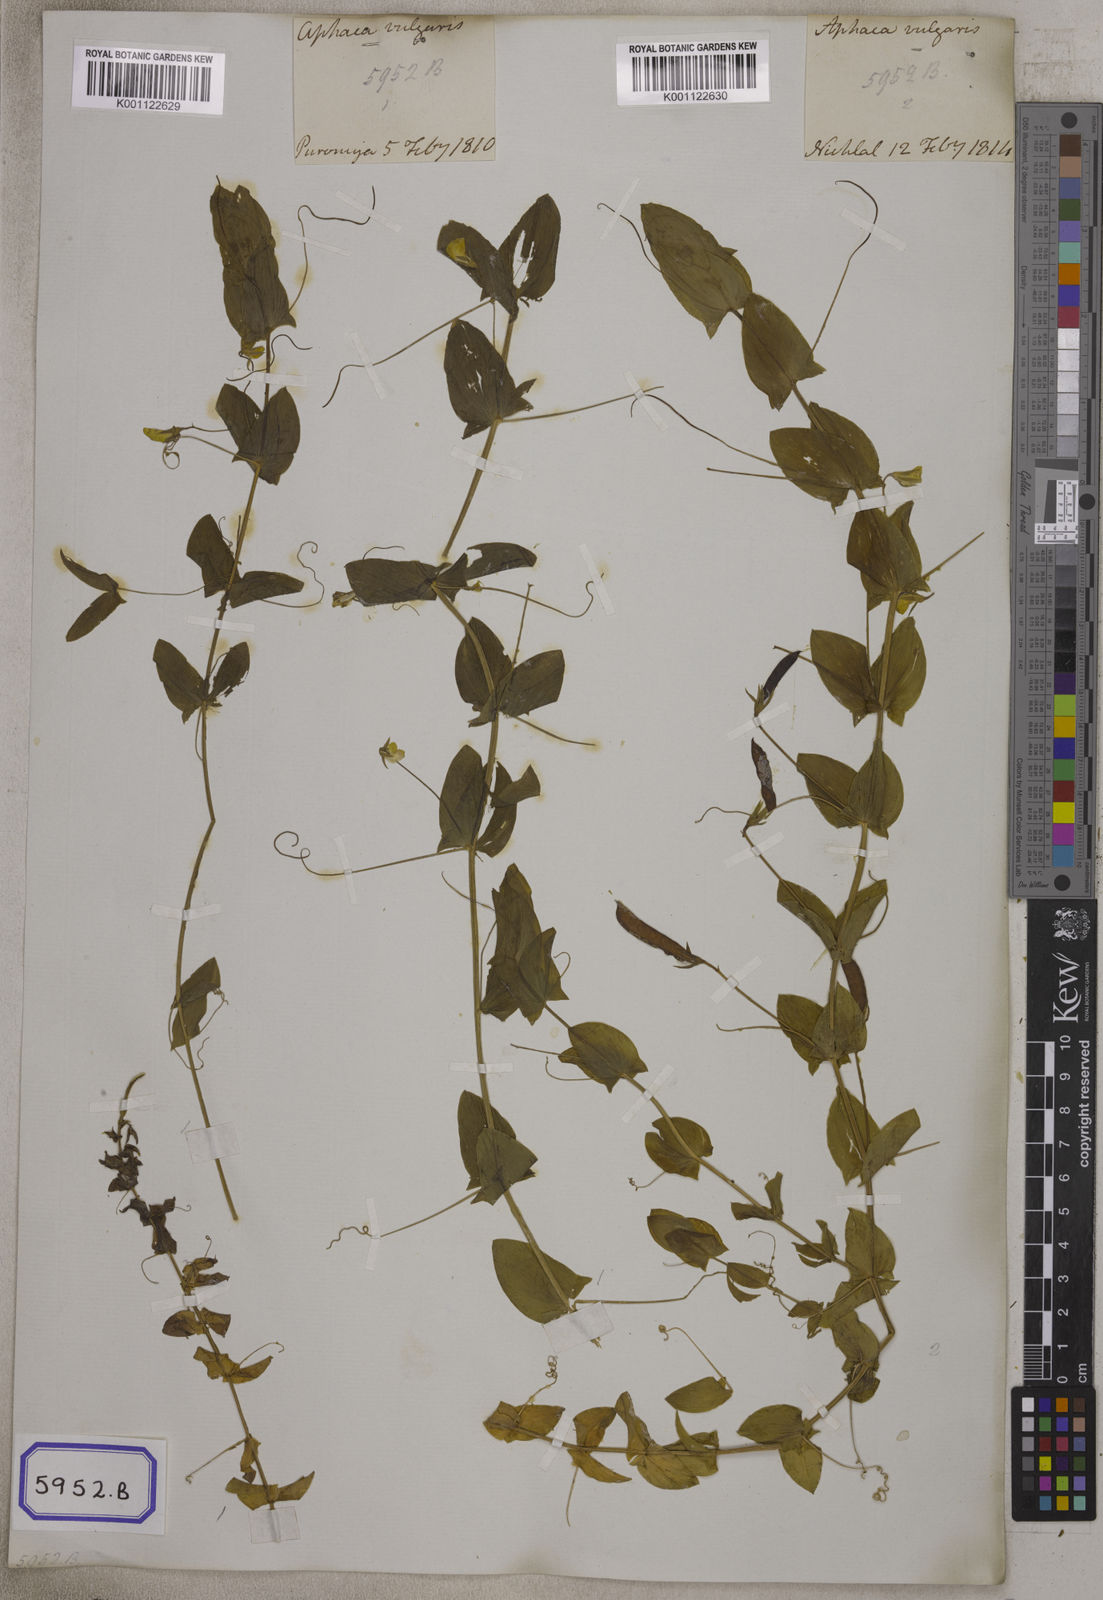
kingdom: Plantae
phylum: Tracheophyta
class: Magnoliopsida
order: Fabales
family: Fabaceae
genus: Lathyrus
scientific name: Lathyrus aphaca
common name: Yellow vetchling
